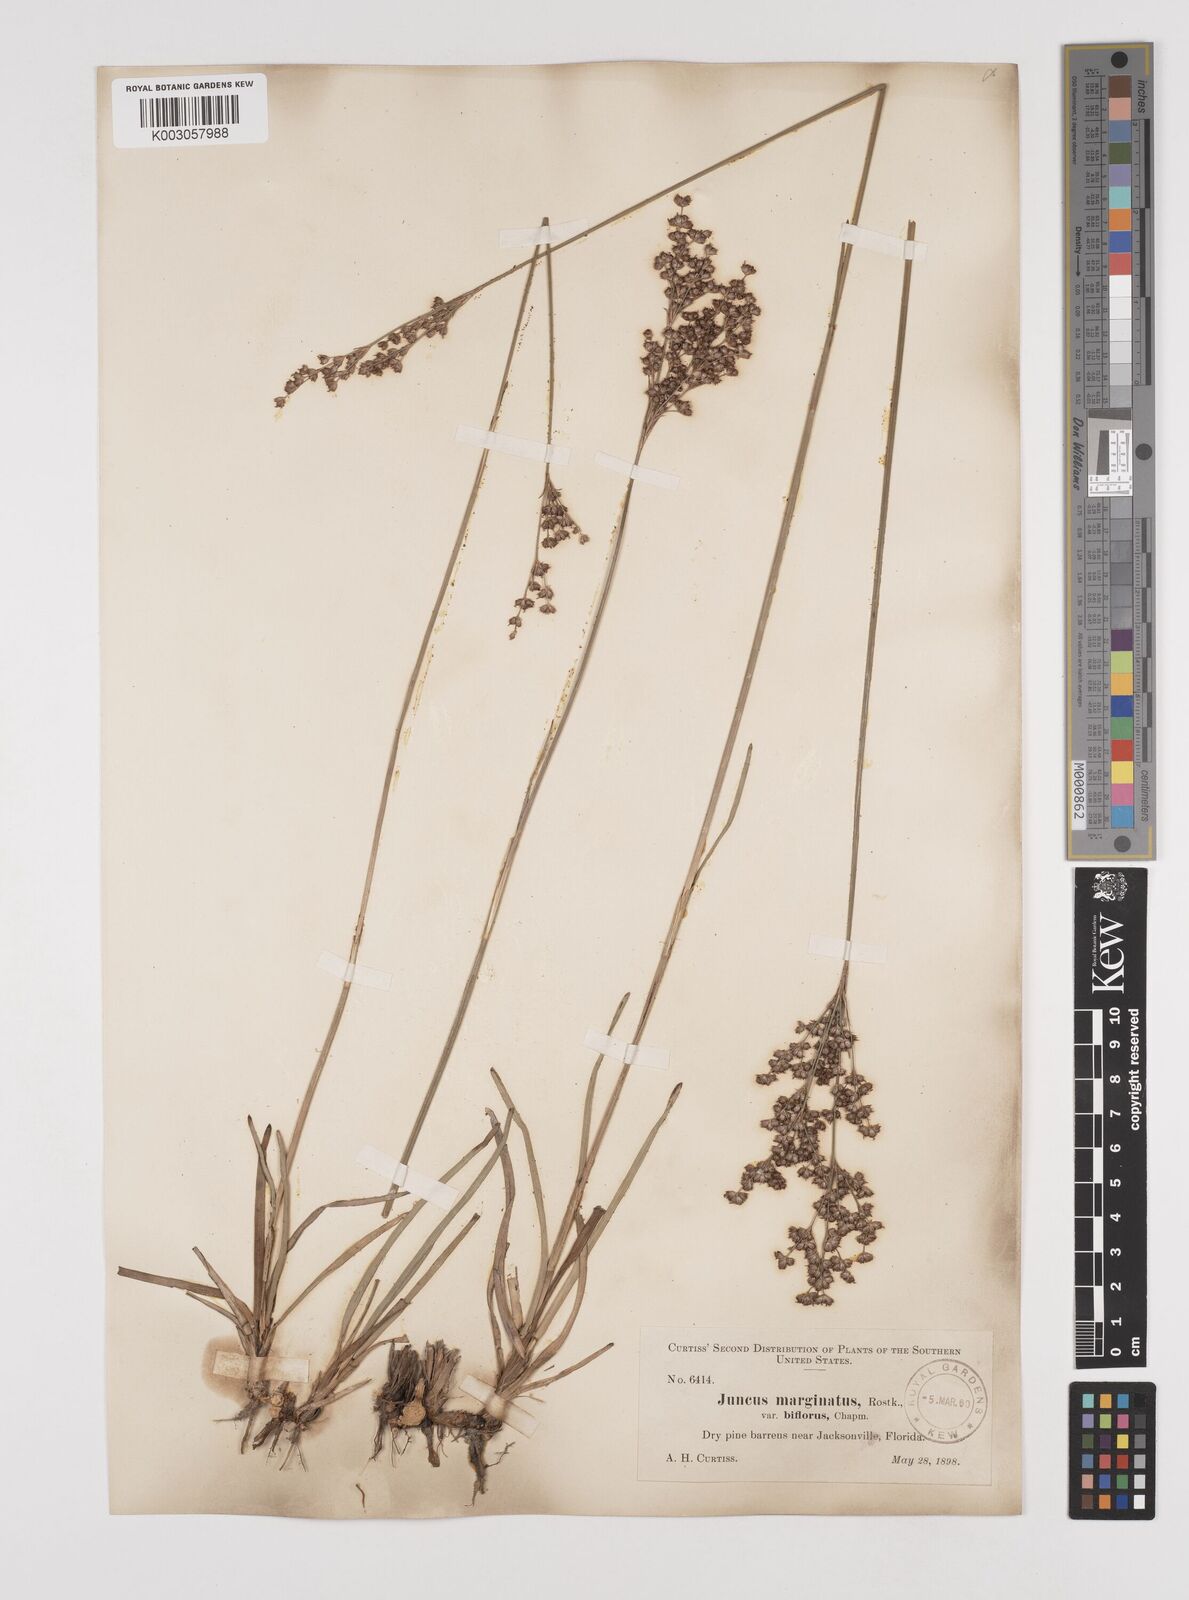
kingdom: Plantae
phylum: Tracheophyta
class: Liliopsida
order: Poales
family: Juncaceae
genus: Juncus
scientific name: Juncus marginatus
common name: Grass-leaf rush
